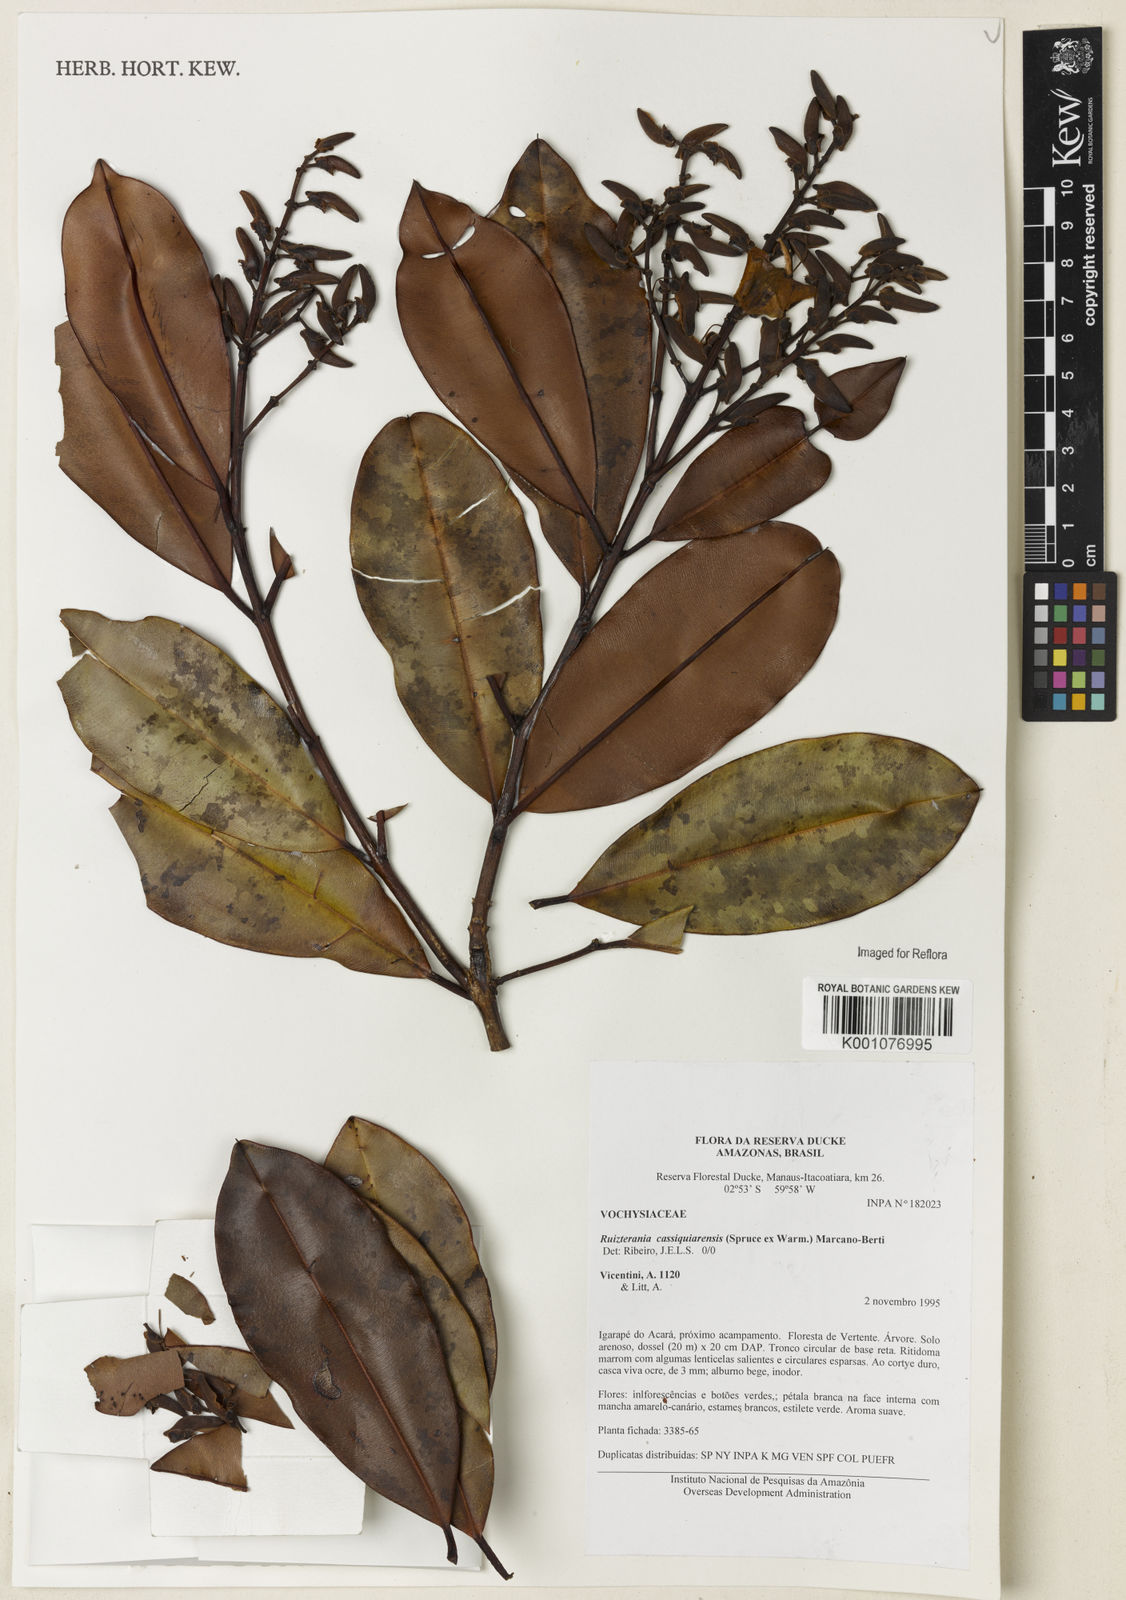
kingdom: Plantae
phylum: Tracheophyta
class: Magnoliopsida
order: Myrtales
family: Vochysiaceae
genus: Ruizterania
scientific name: Ruizterania cassiquiarensis
